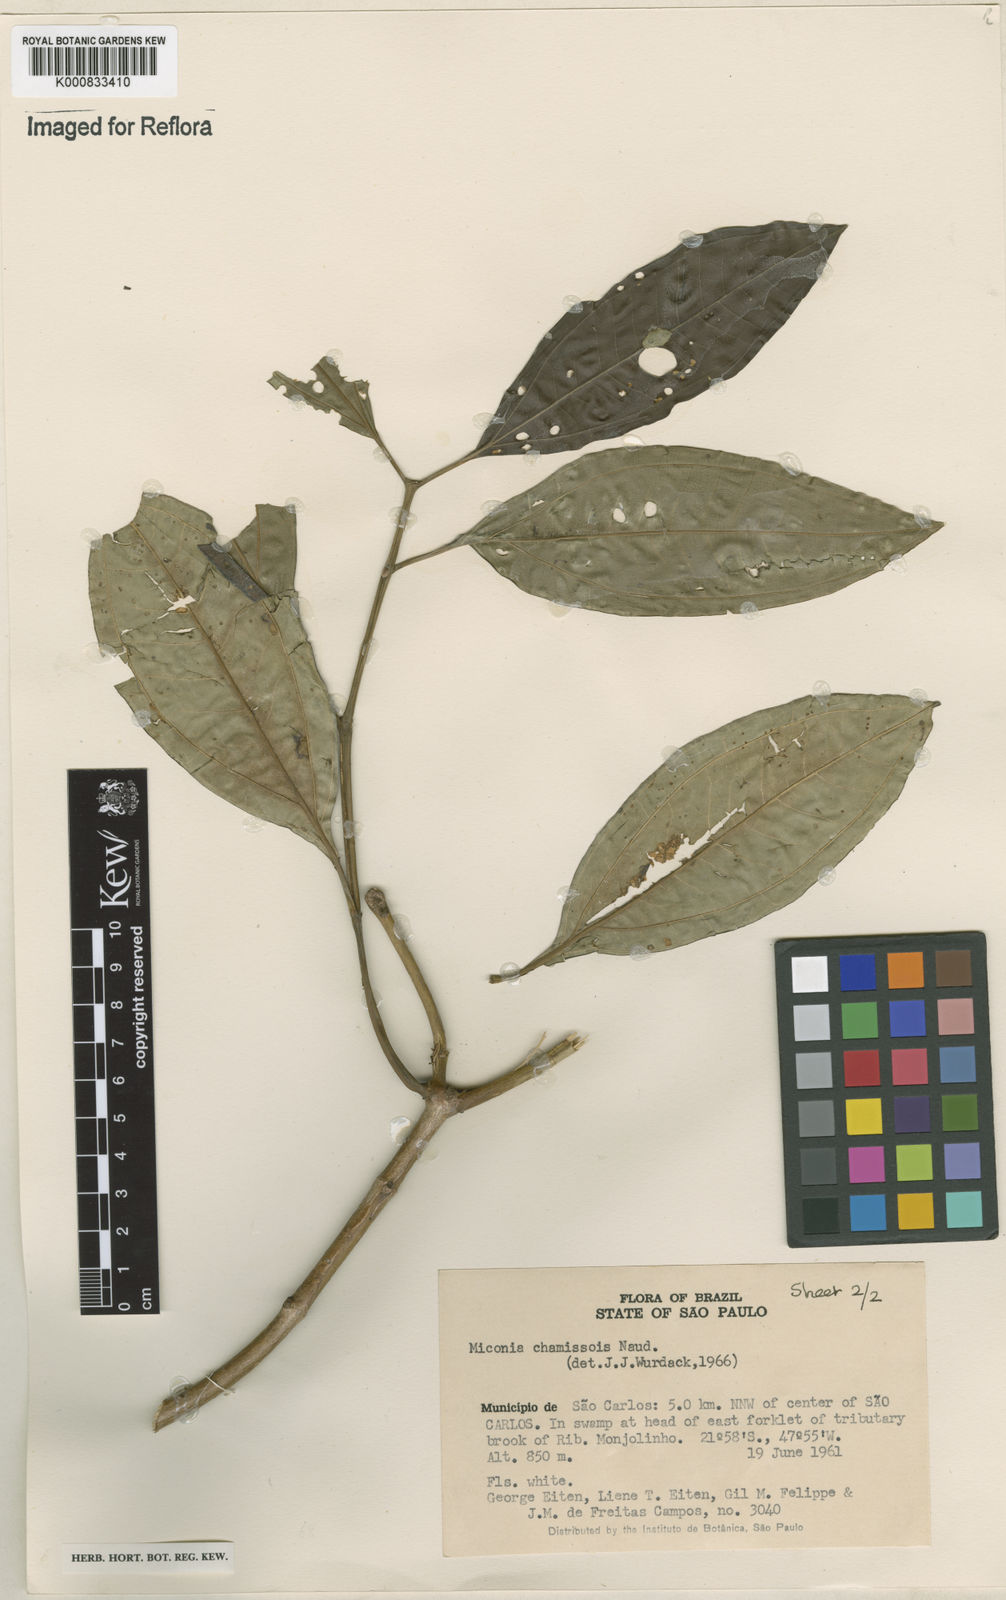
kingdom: Plantae
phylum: Tracheophyta
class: Magnoliopsida
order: Myrtales
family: Melastomataceae
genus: Miconia
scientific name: Miconia chamissois
